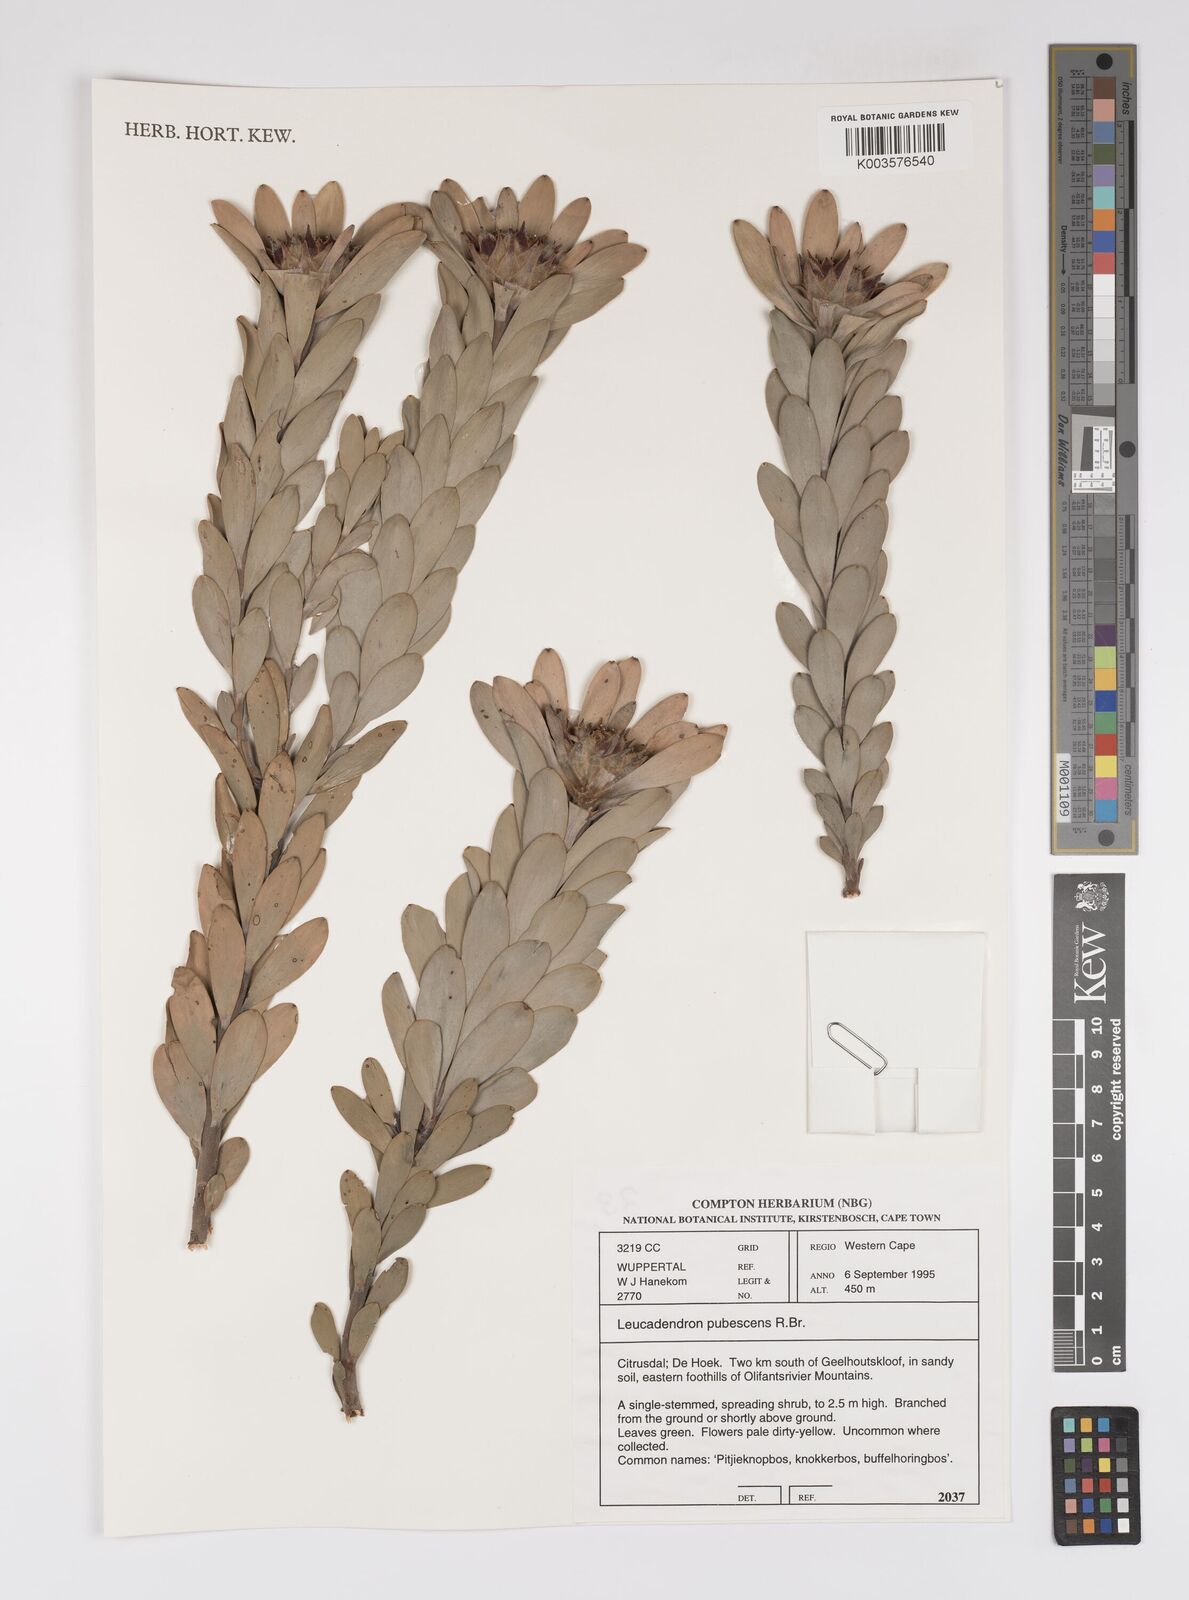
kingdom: Plantae
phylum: Tracheophyta
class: Magnoliopsida
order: Proteales
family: Proteaceae
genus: Leucadendron
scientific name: Leucadendron pubescens
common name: Grey conebush
